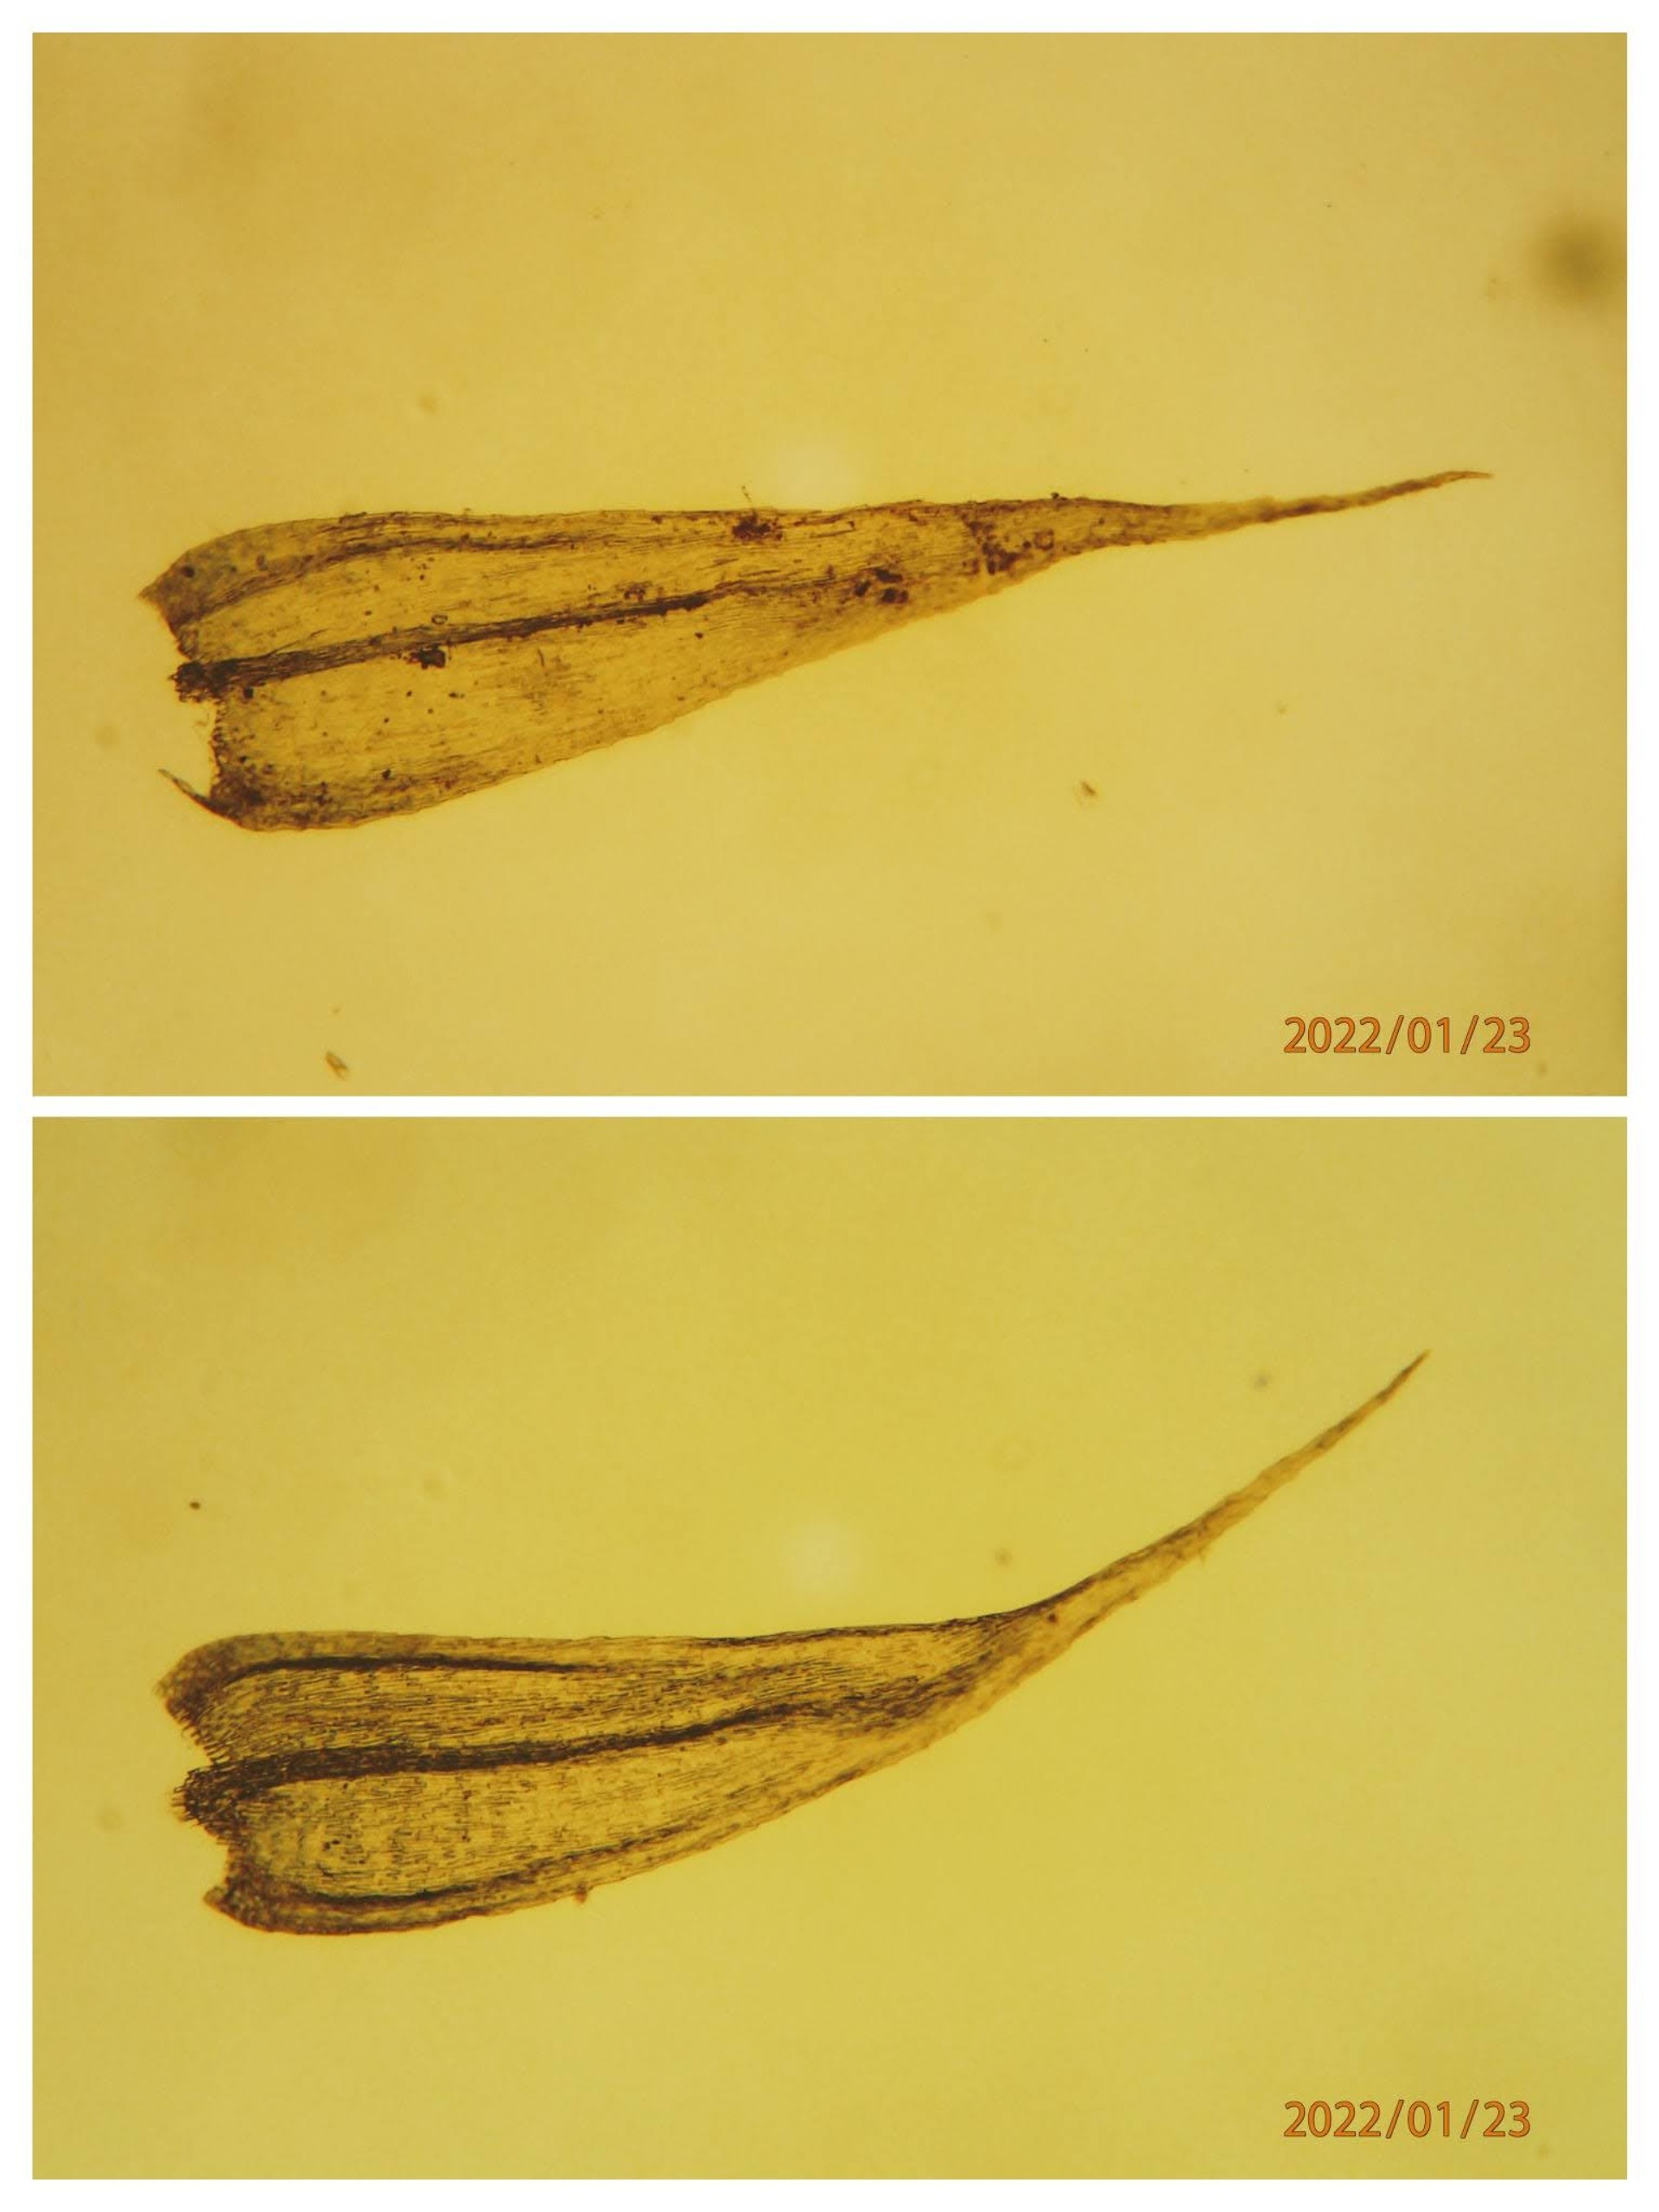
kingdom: Plantae
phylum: Bryophyta
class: Bryopsida
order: Hypnales
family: Brachytheciaceae
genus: Brachytheciastrum
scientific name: Brachytheciastrum velutinum
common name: Fløjls-kortkapsel
